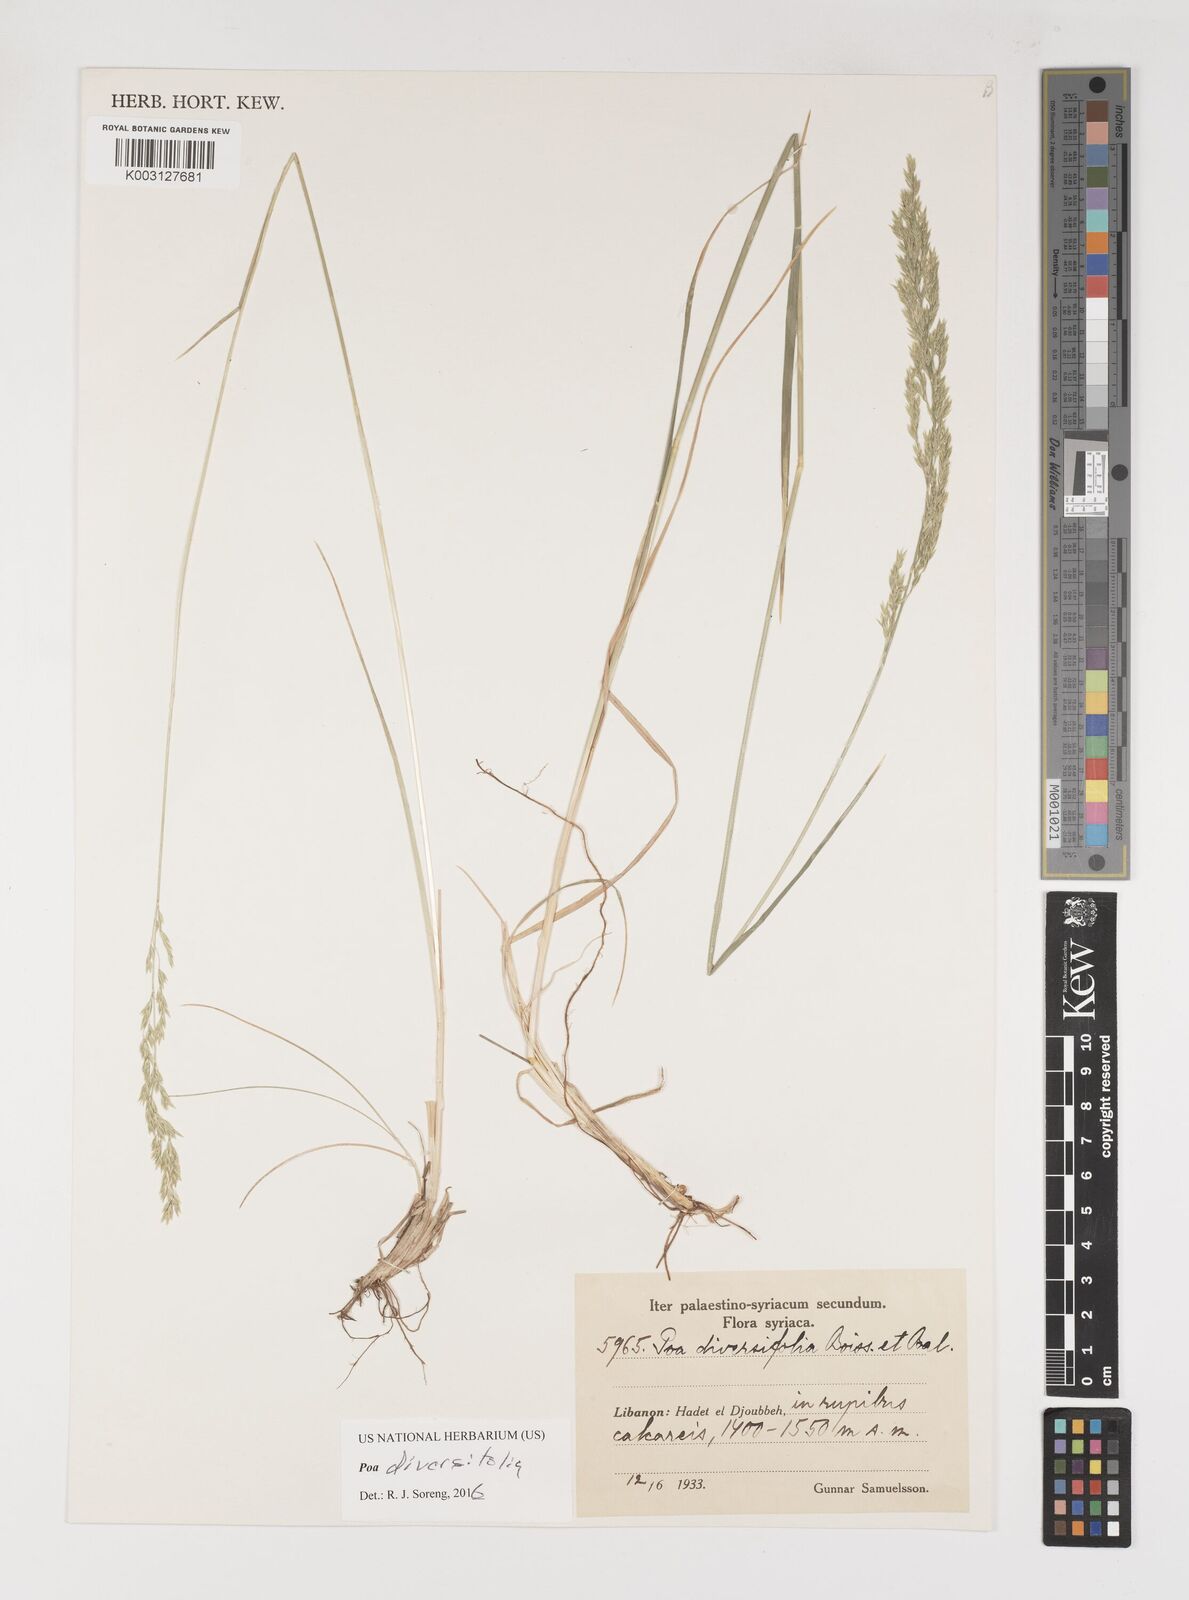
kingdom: Plantae
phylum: Tracheophyta
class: Liliopsida
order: Poales
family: Poaceae
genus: Poa
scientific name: Poa diversifolia
